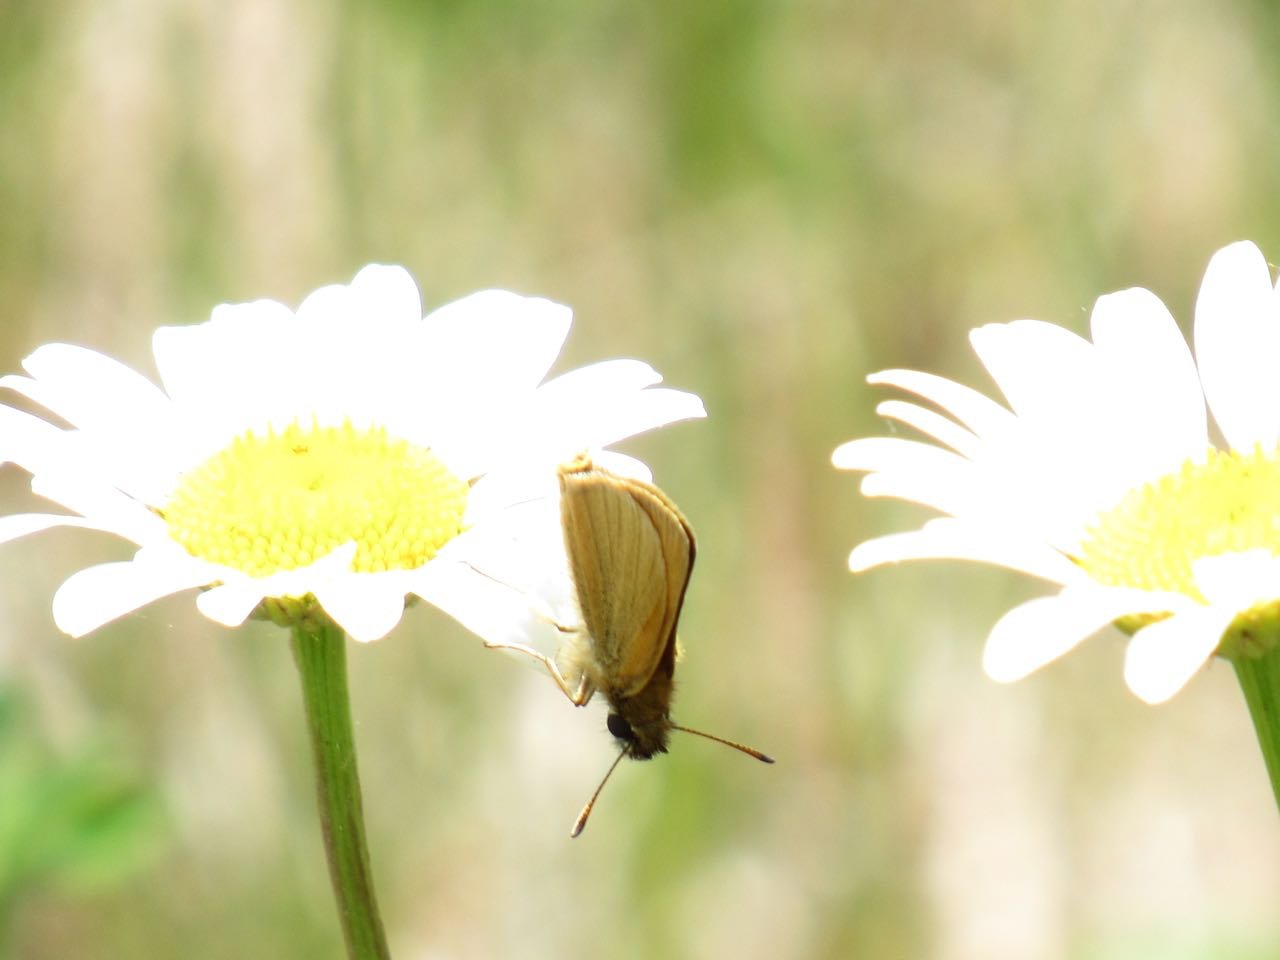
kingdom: Animalia
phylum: Arthropoda
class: Insecta
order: Lepidoptera
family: Hesperiidae
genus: Thymelicus
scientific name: Thymelicus lineola
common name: European Skipper
